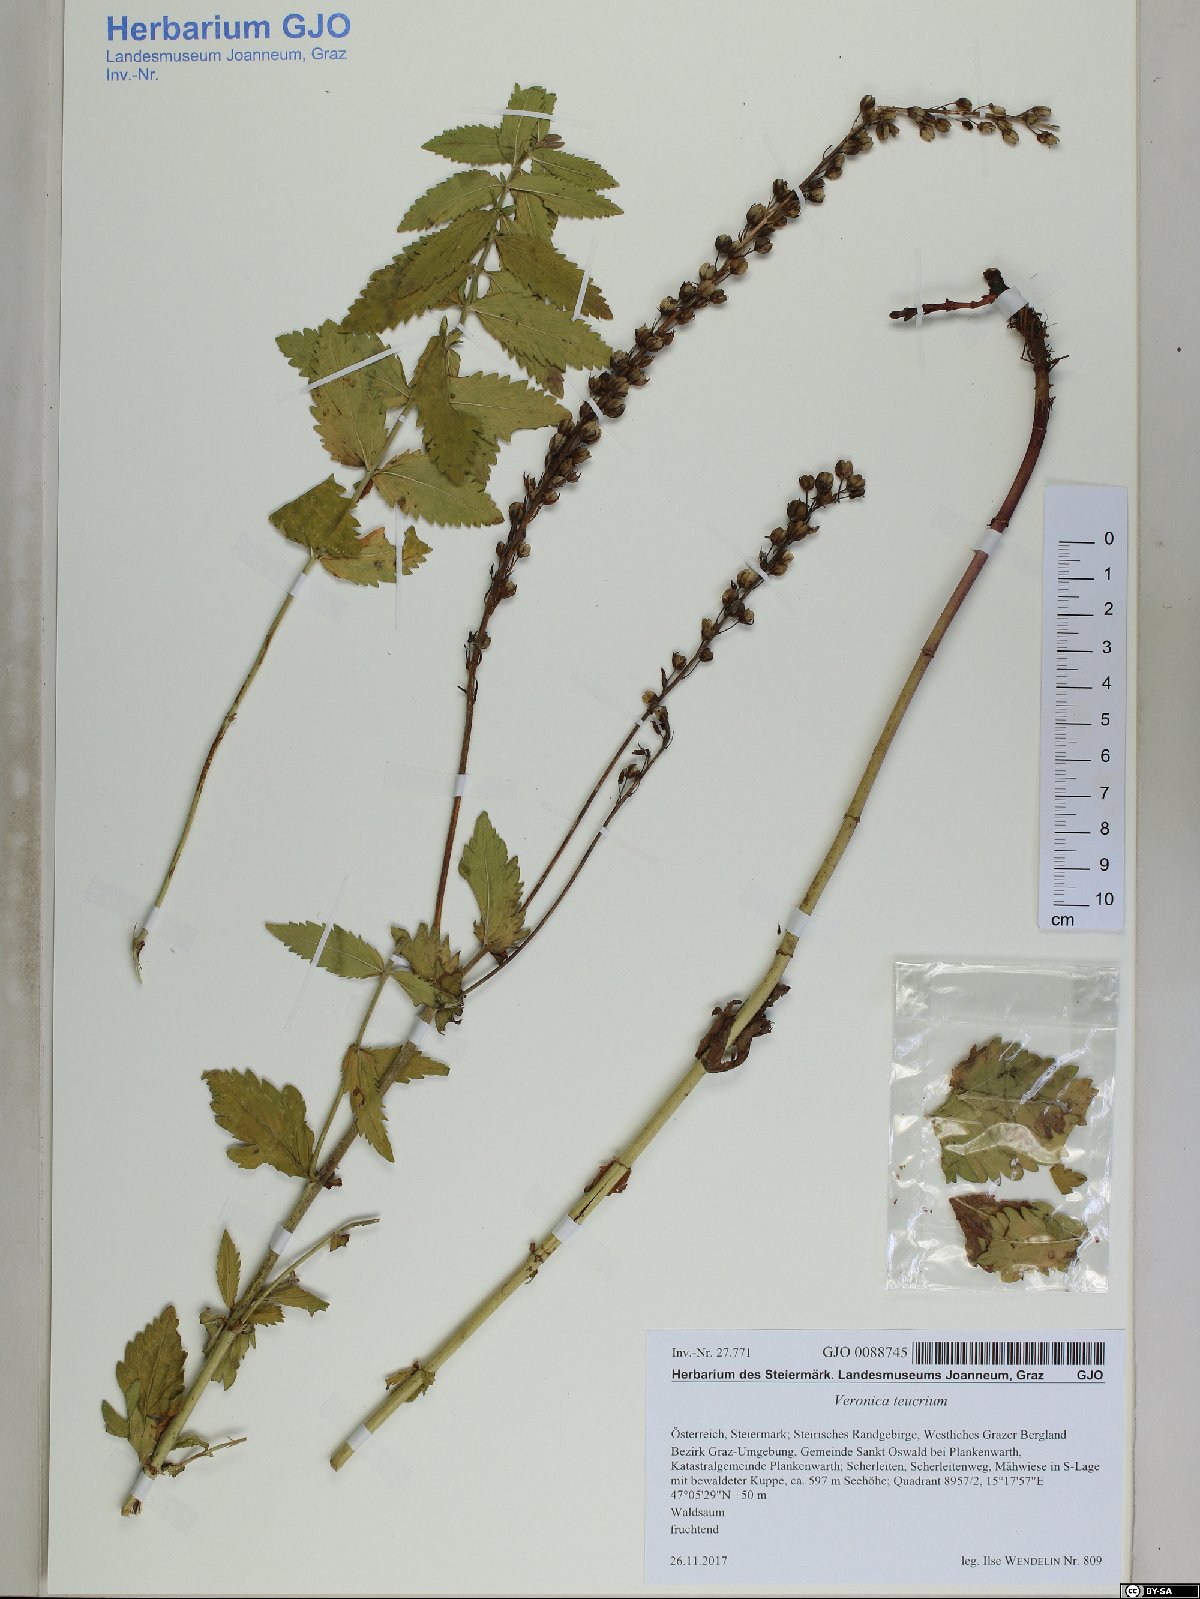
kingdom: Plantae
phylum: Tracheophyta
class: Magnoliopsida
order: Lamiales
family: Plantaginaceae
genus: Veronica
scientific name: Veronica teucrium
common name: Large speedwell
